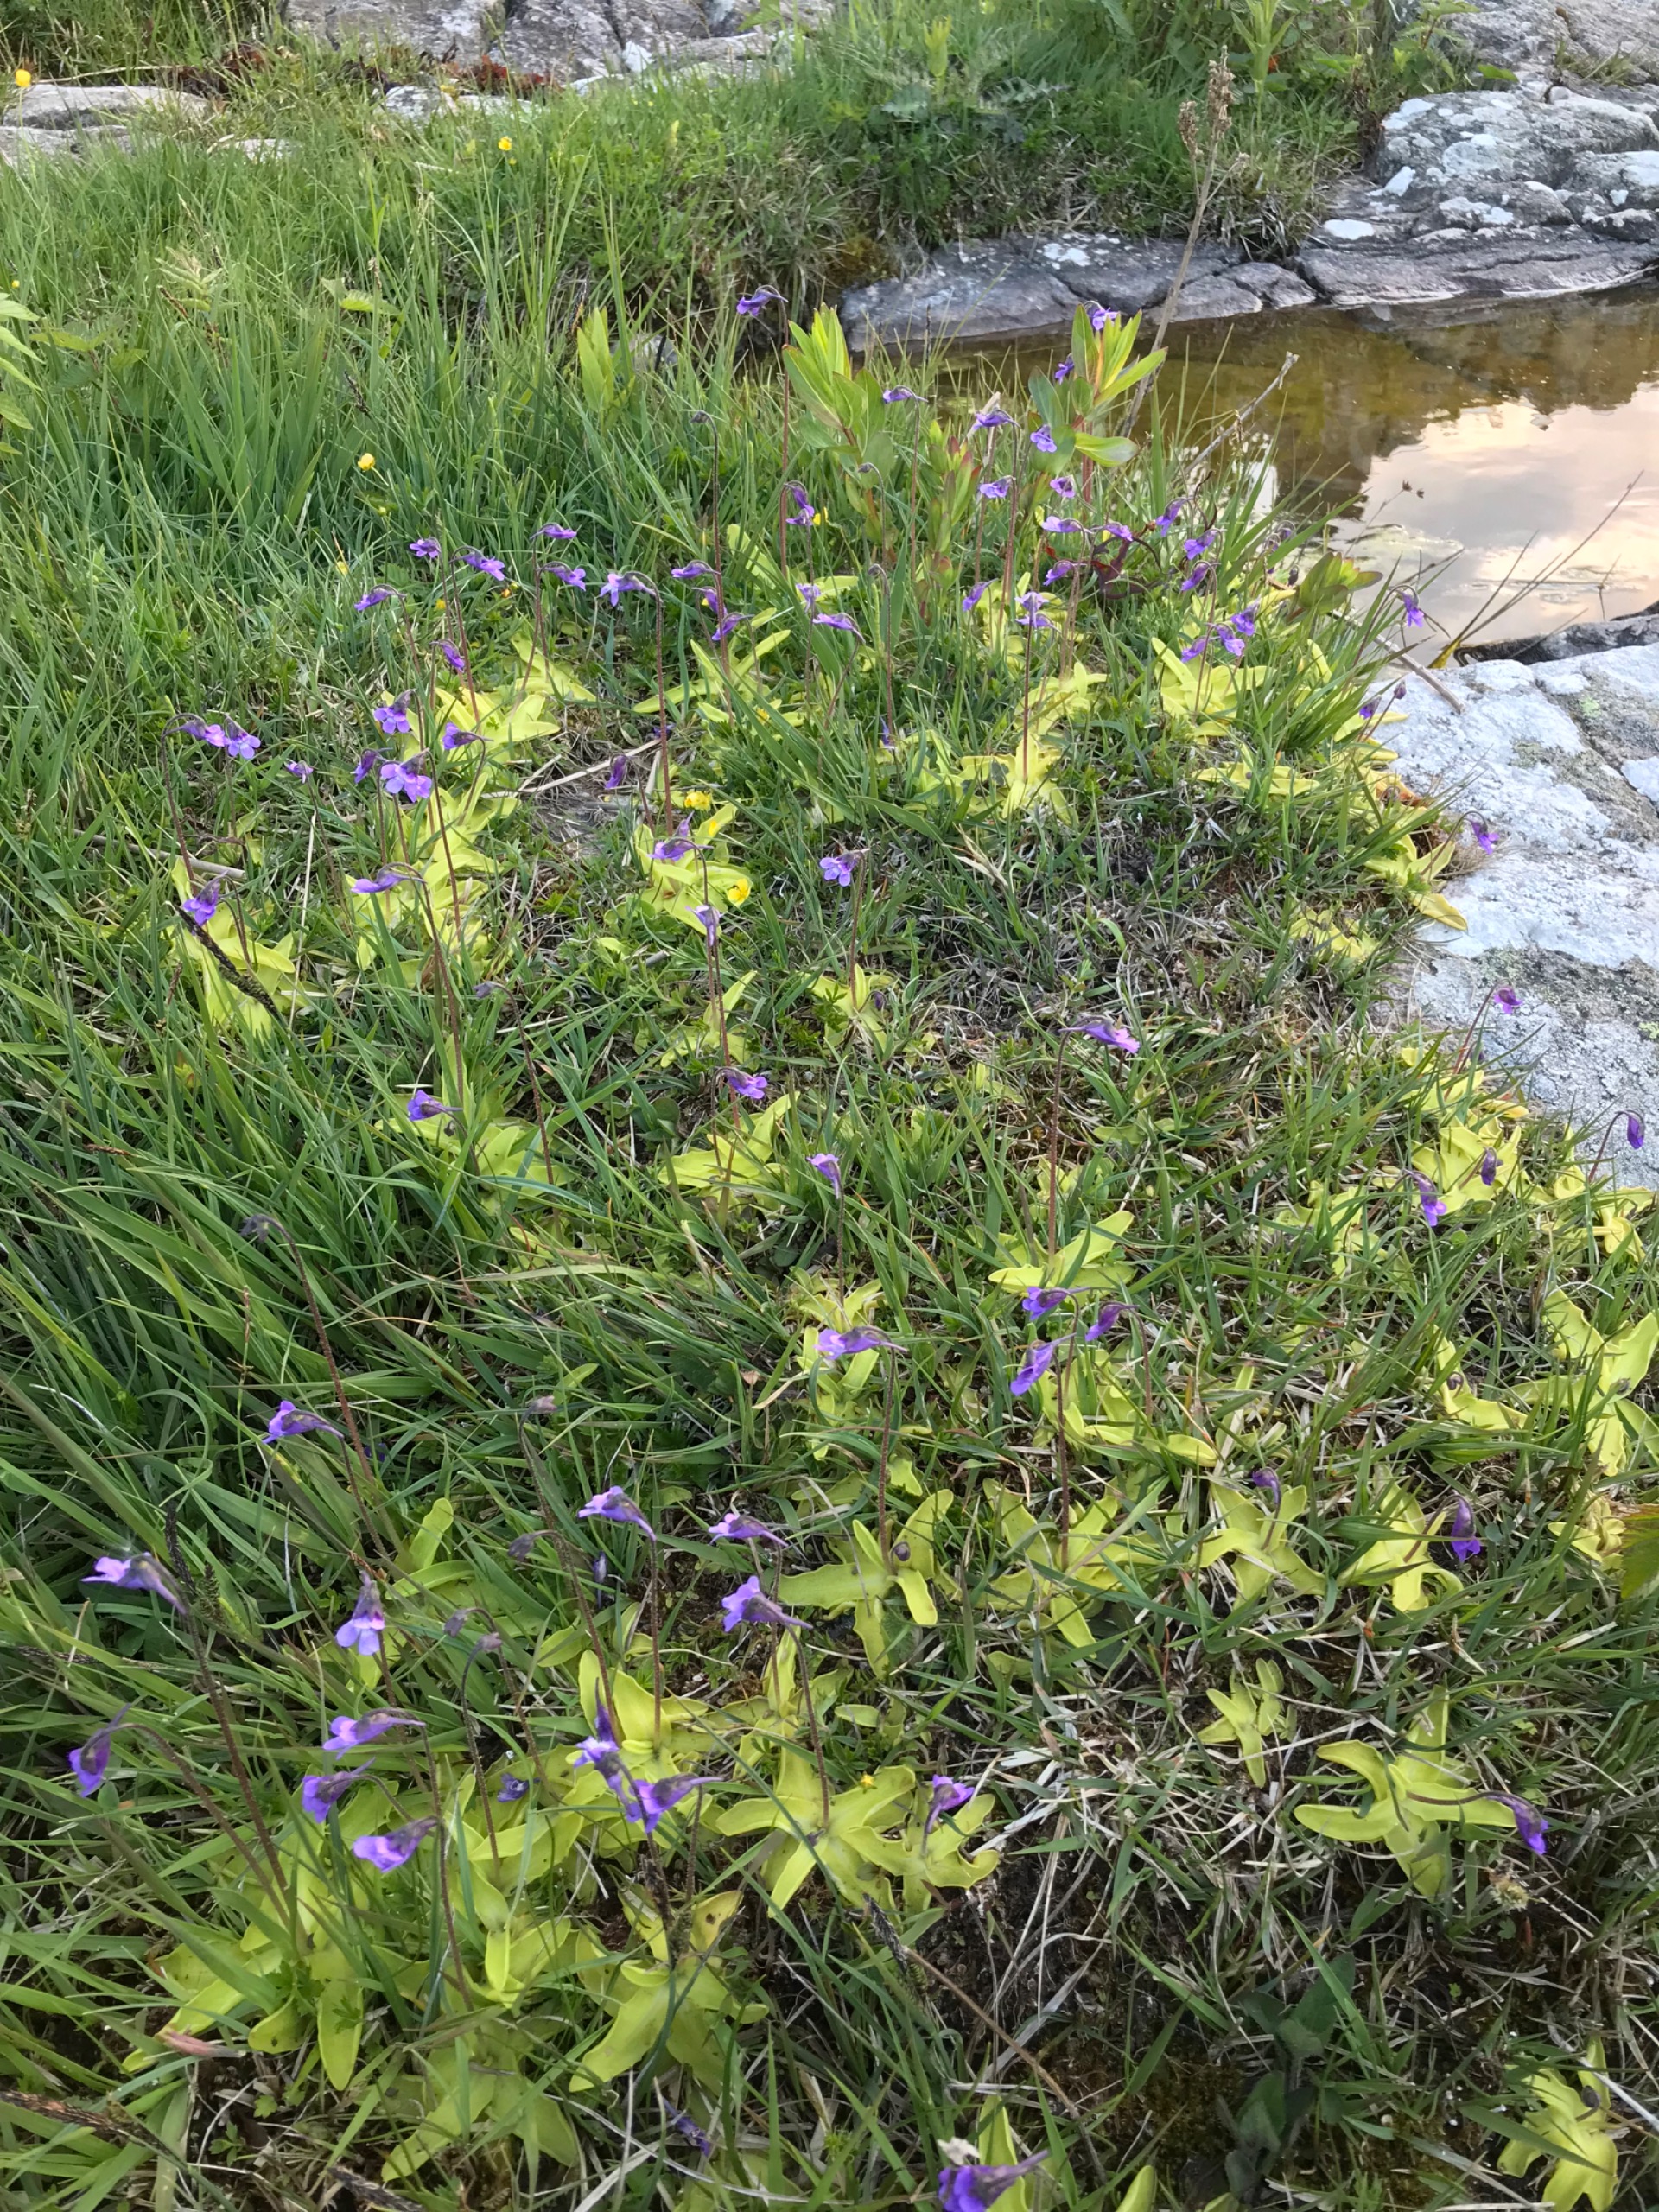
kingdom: Plantae
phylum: Tracheophyta
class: Magnoliopsida
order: Lamiales
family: Lentibulariaceae
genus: Pinguicula
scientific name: Pinguicula vulgaris
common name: Vibefedt
